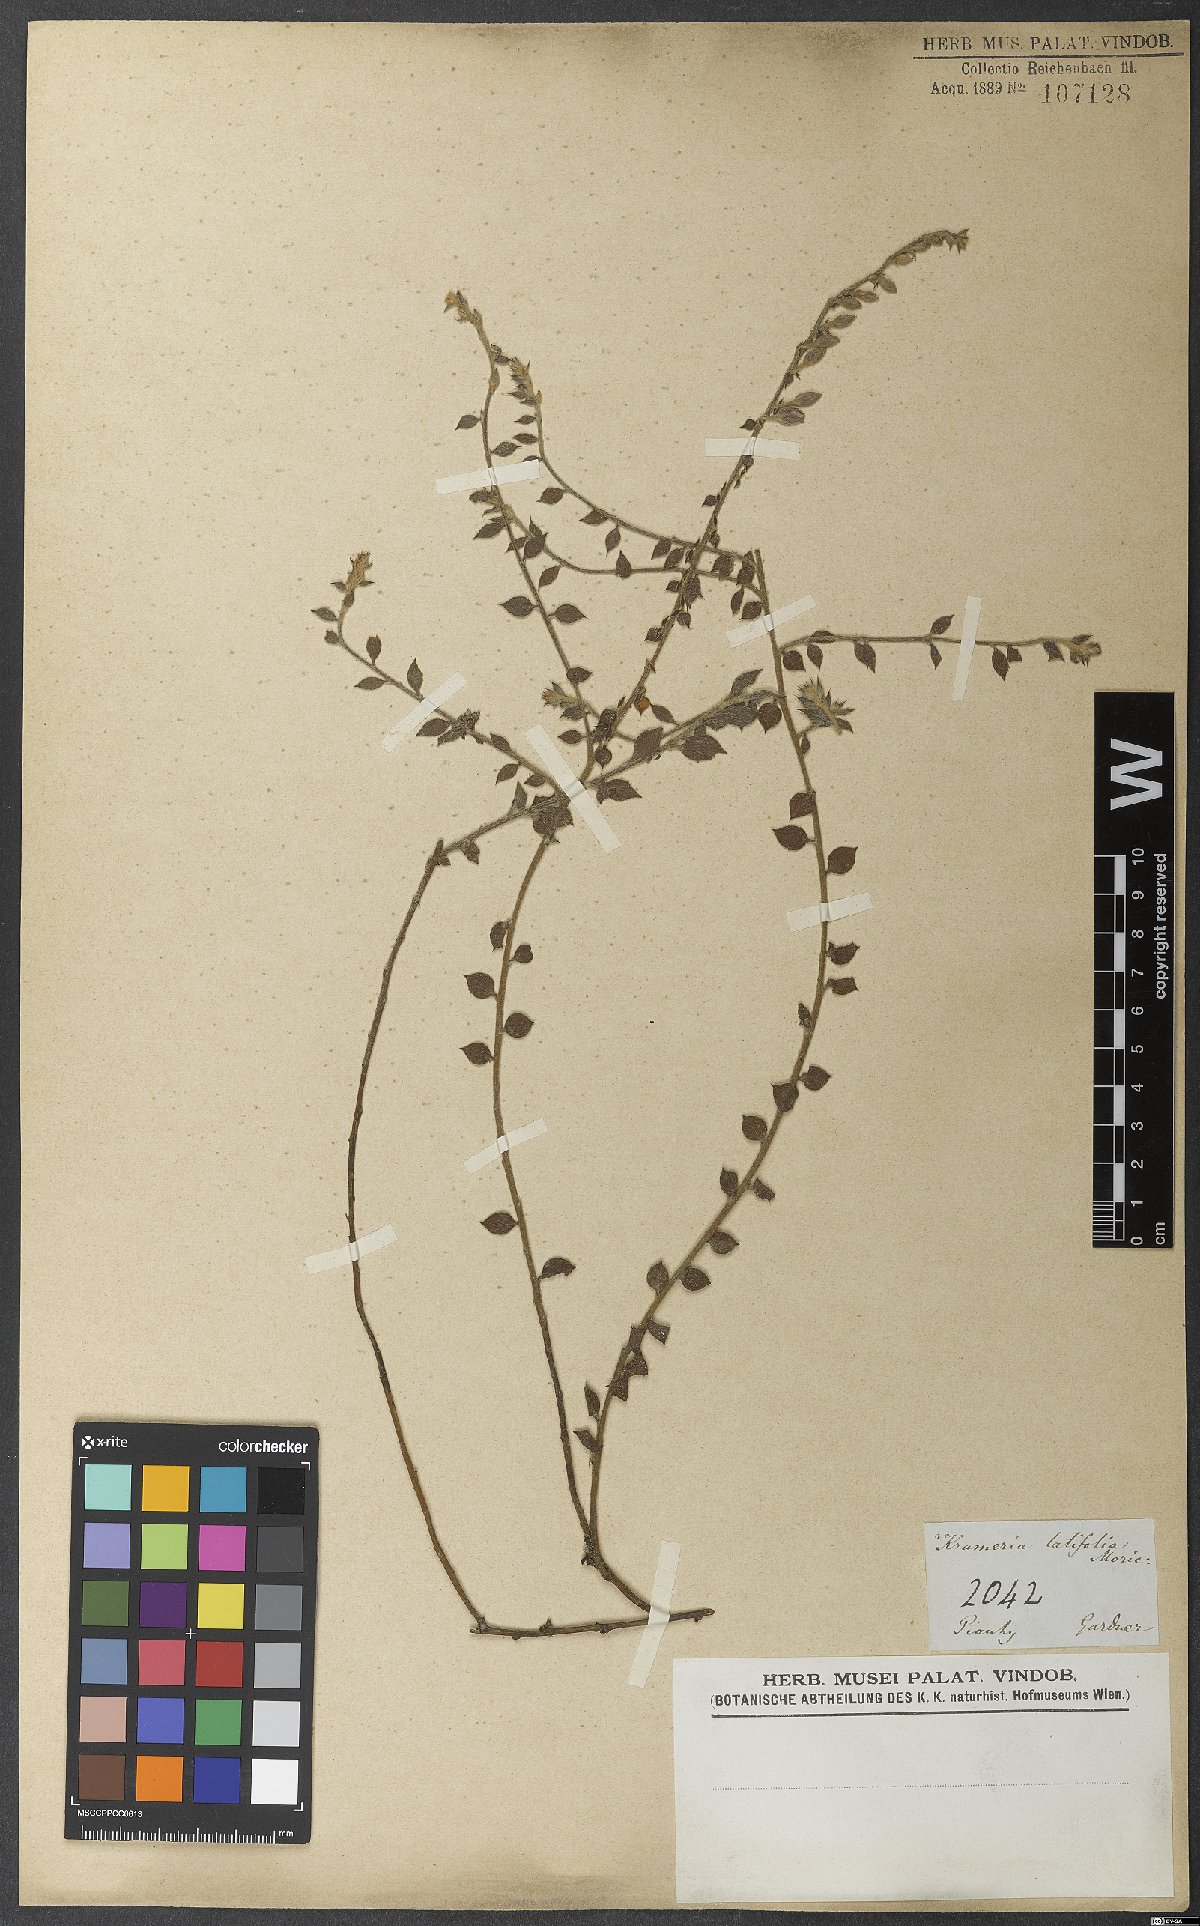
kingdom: Plantae
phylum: Tracheophyta
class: Magnoliopsida
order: Zygophyllales
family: Krameriaceae
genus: Krameria
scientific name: Krameria grandiflora
